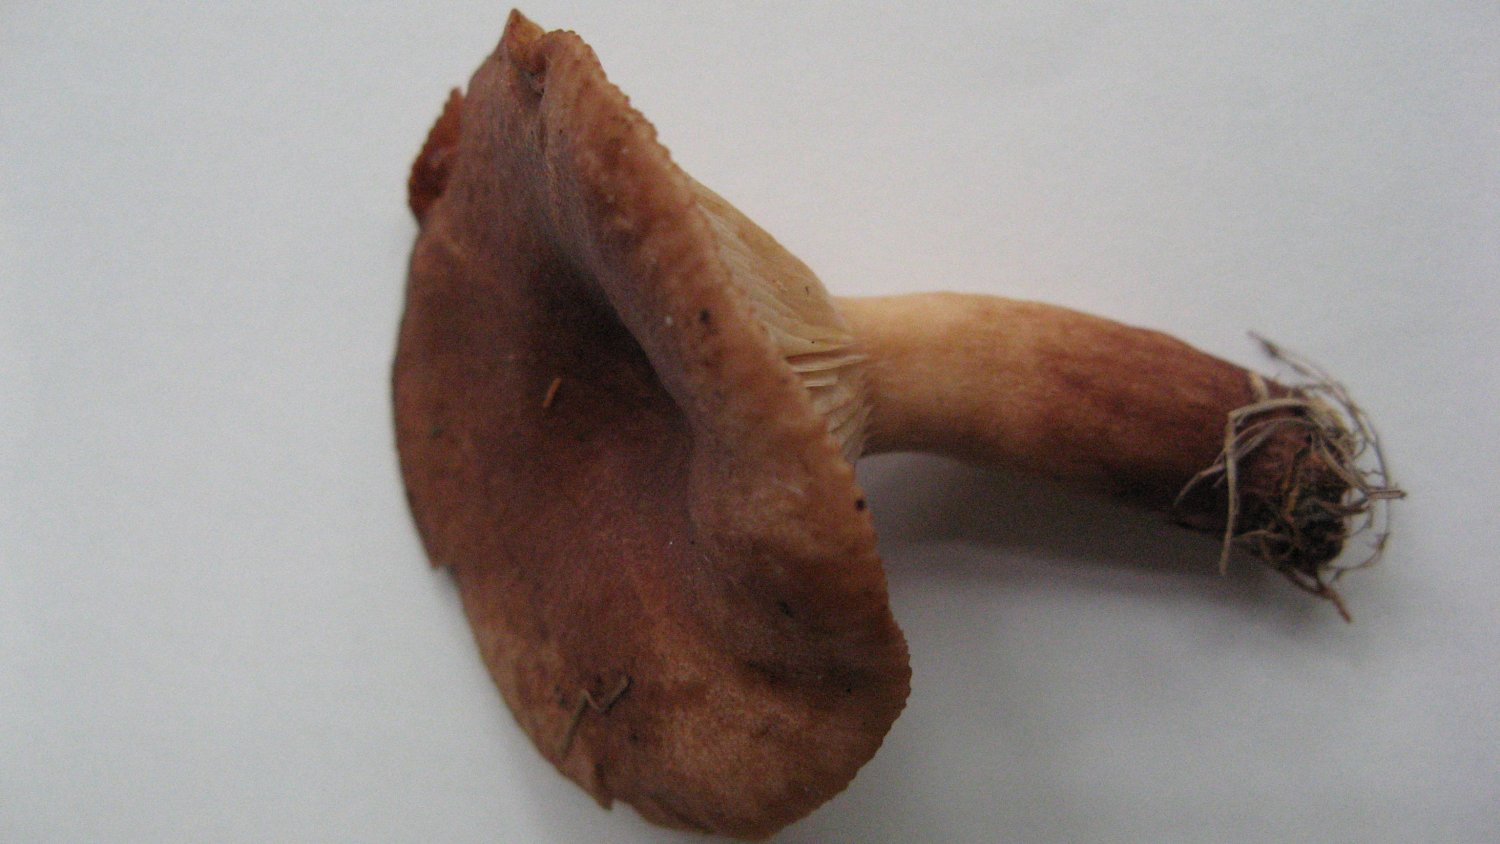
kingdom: Fungi
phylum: Basidiomycota
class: Agaricomycetes
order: Russulales
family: Russulaceae
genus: Lactarius
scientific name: Lactarius lacunarum
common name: sump-mælkehat
